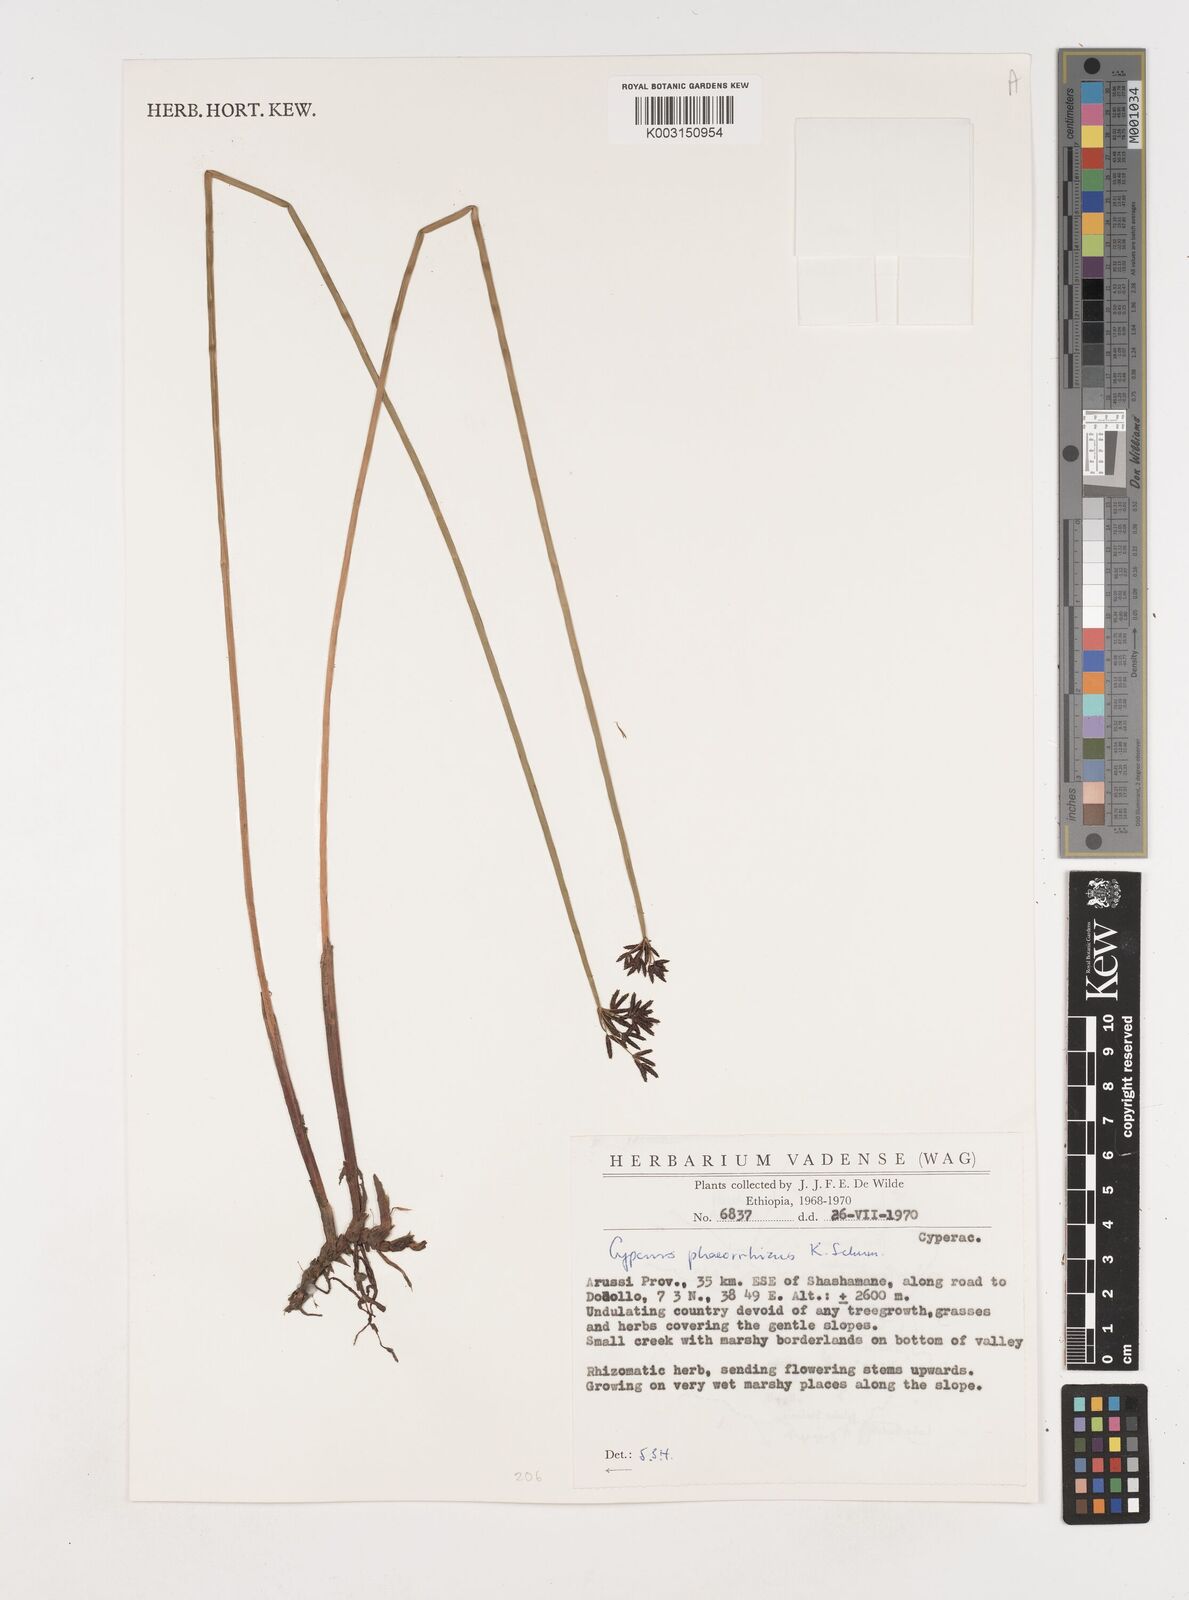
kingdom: Plantae
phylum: Tracheophyta
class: Liliopsida
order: Poales
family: Cyperaceae
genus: Cyperus
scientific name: Cyperus haspan
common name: Haspan flatsedge
